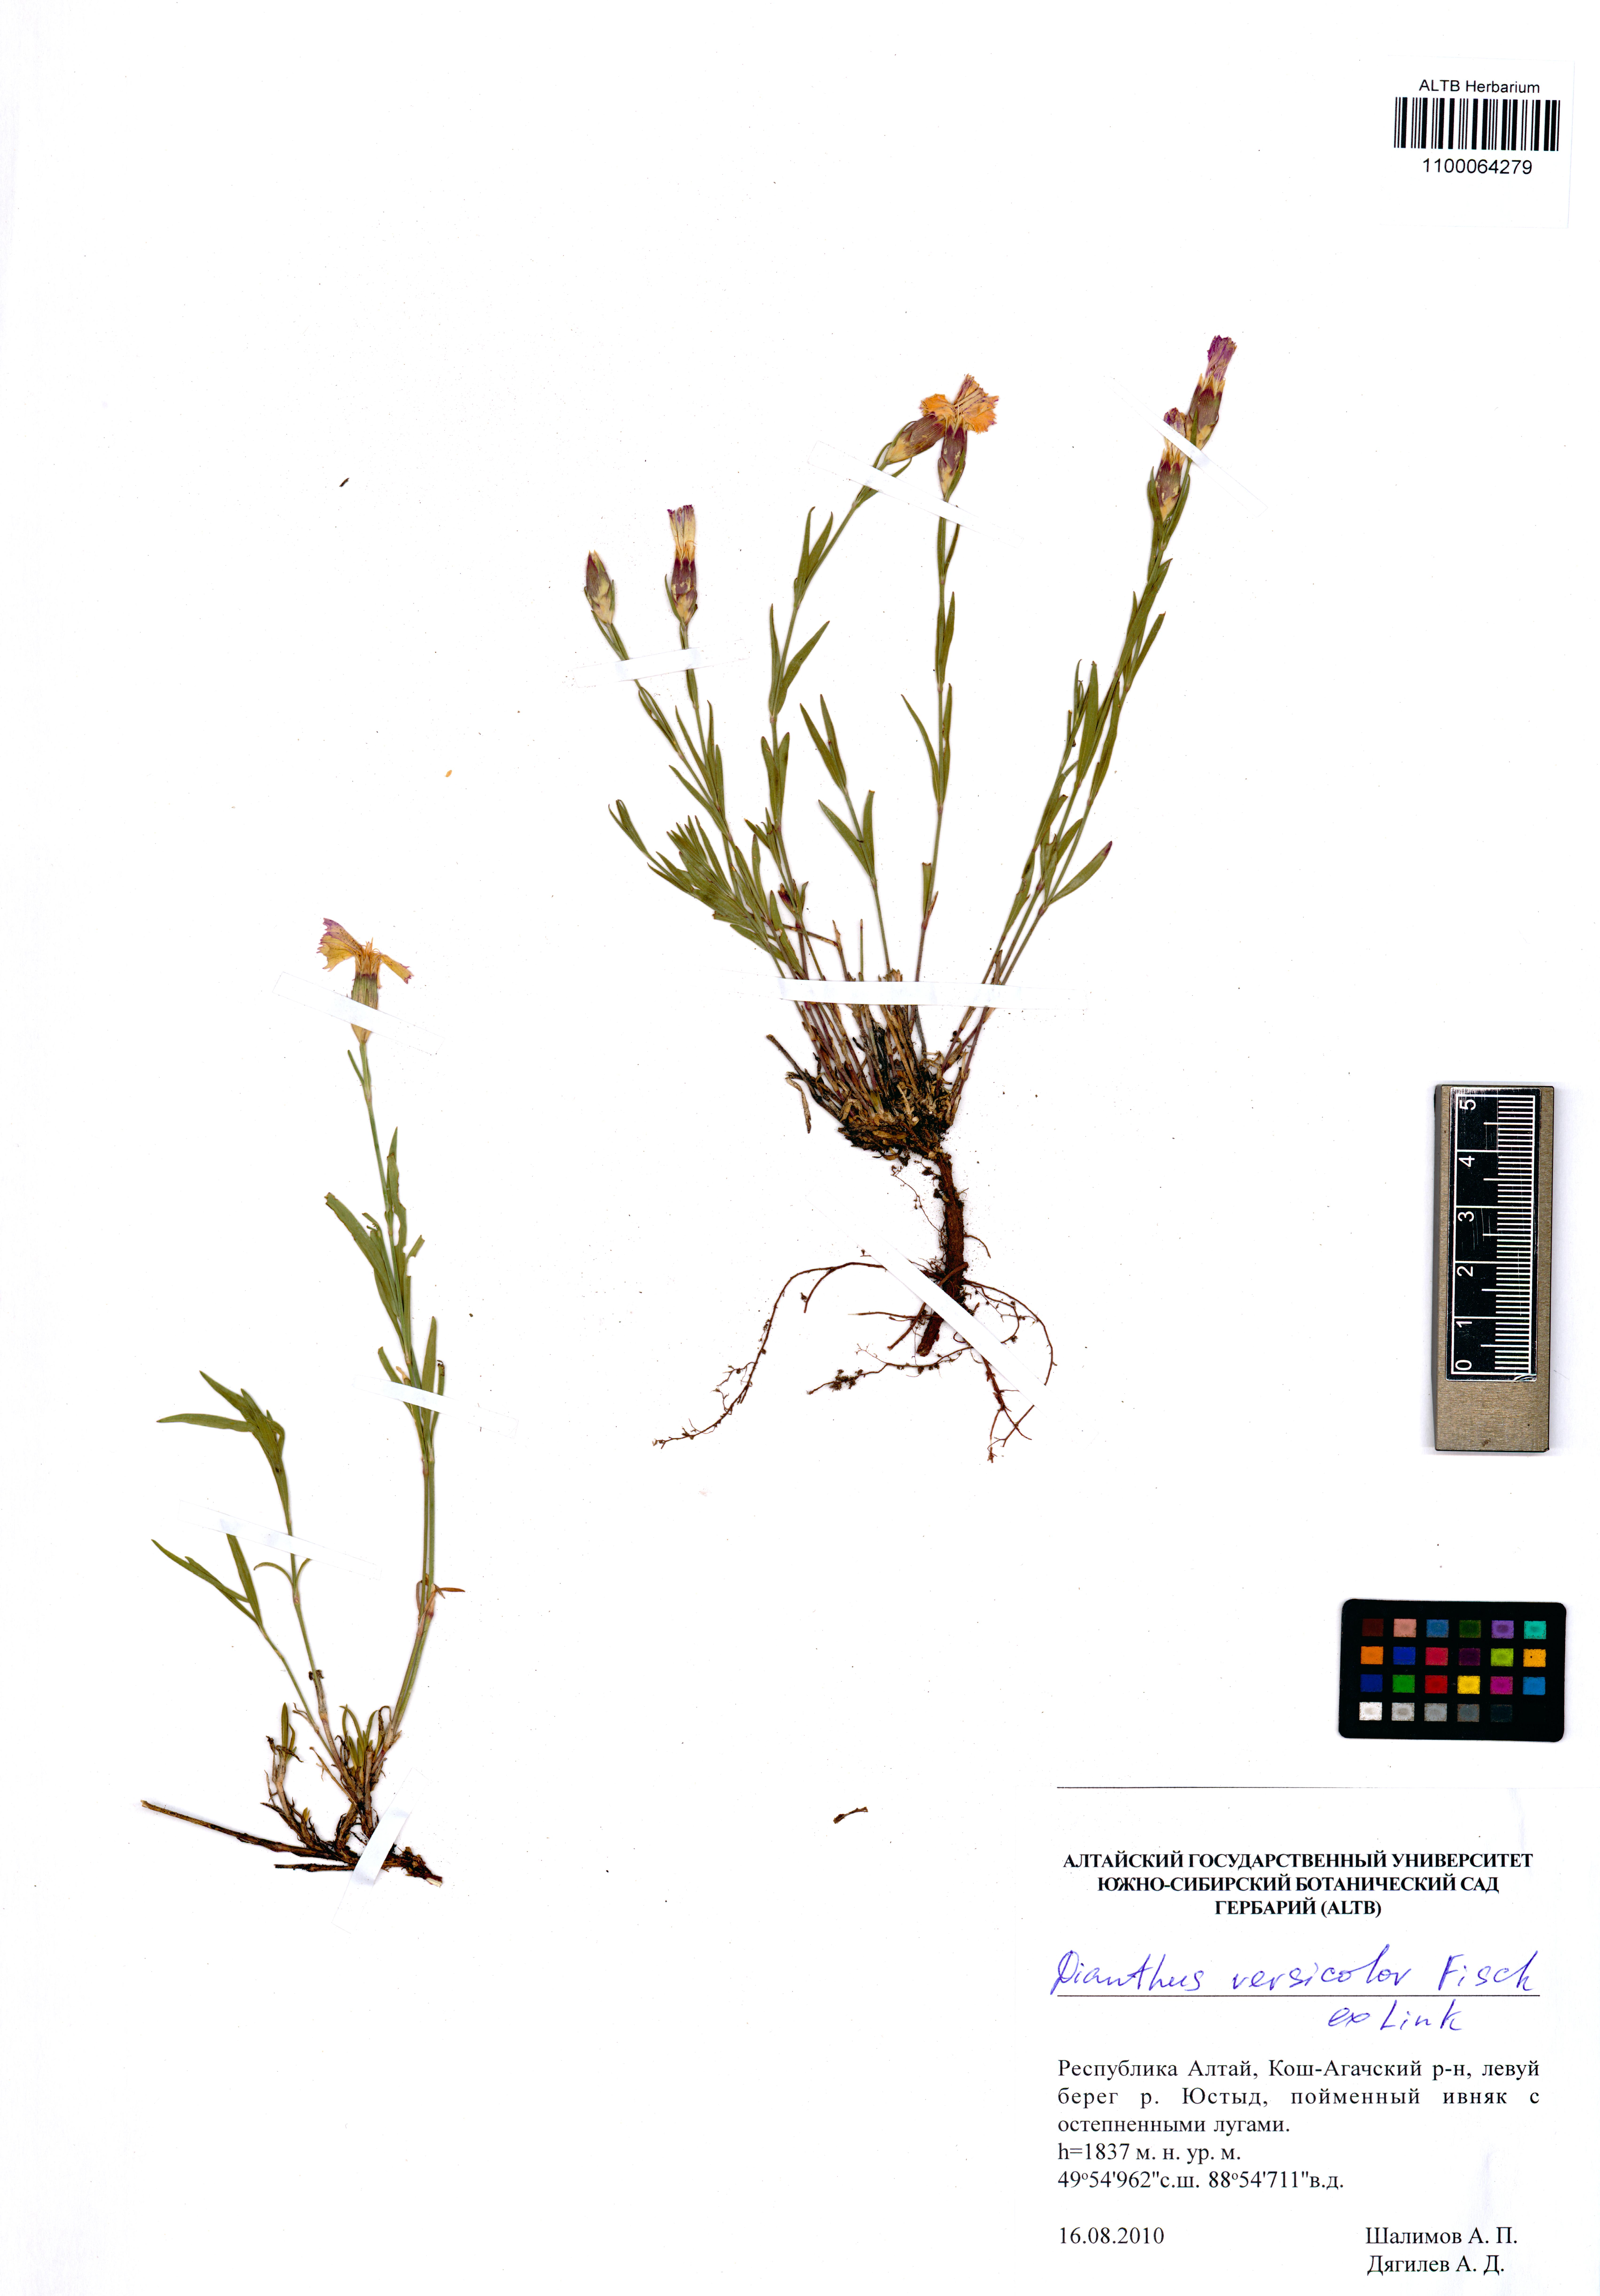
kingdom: Plantae
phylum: Tracheophyta
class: Magnoliopsida
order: Caryophyllales
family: Caryophyllaceae
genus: Dianthus
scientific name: Dianthus chinensis
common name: Rainbow pink
